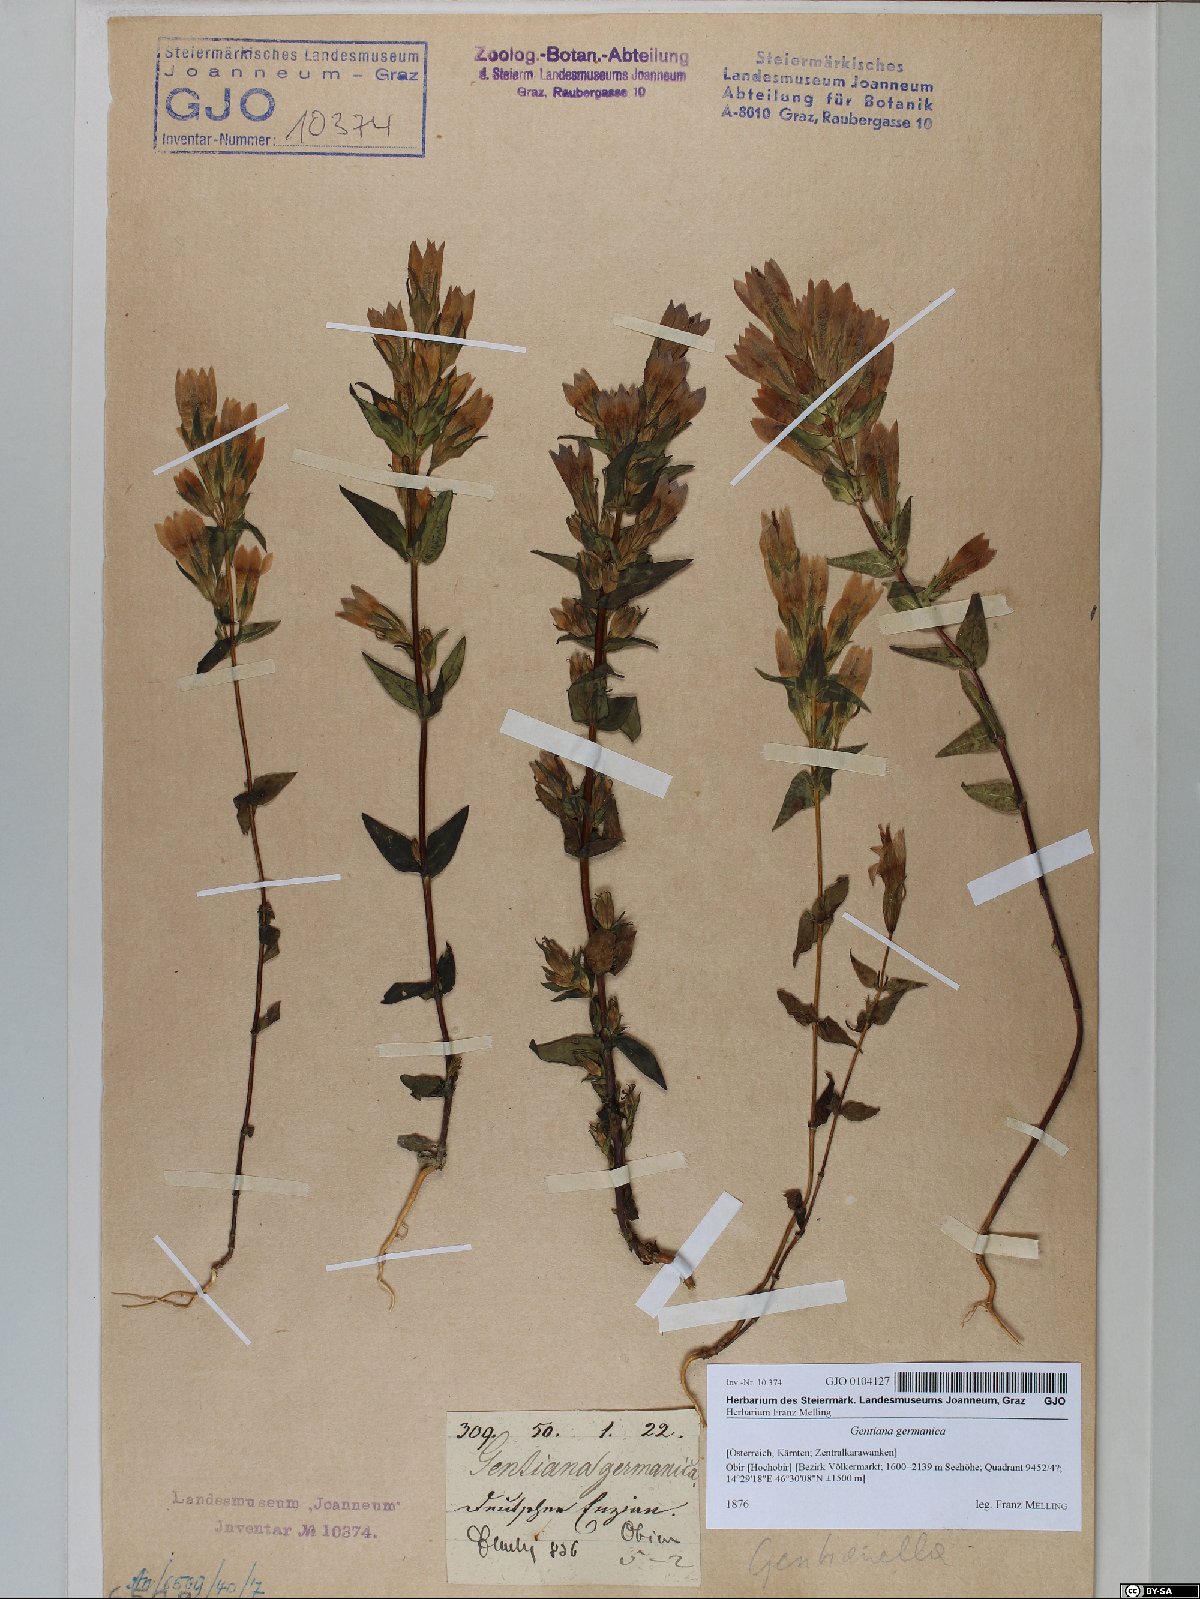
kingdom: Plantae
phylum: Tracheophyta
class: Magnoliopsida
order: Gentianales
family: Gentianaceae
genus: Gentianella
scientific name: Gentianella germanica
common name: Chiltern-gentian
